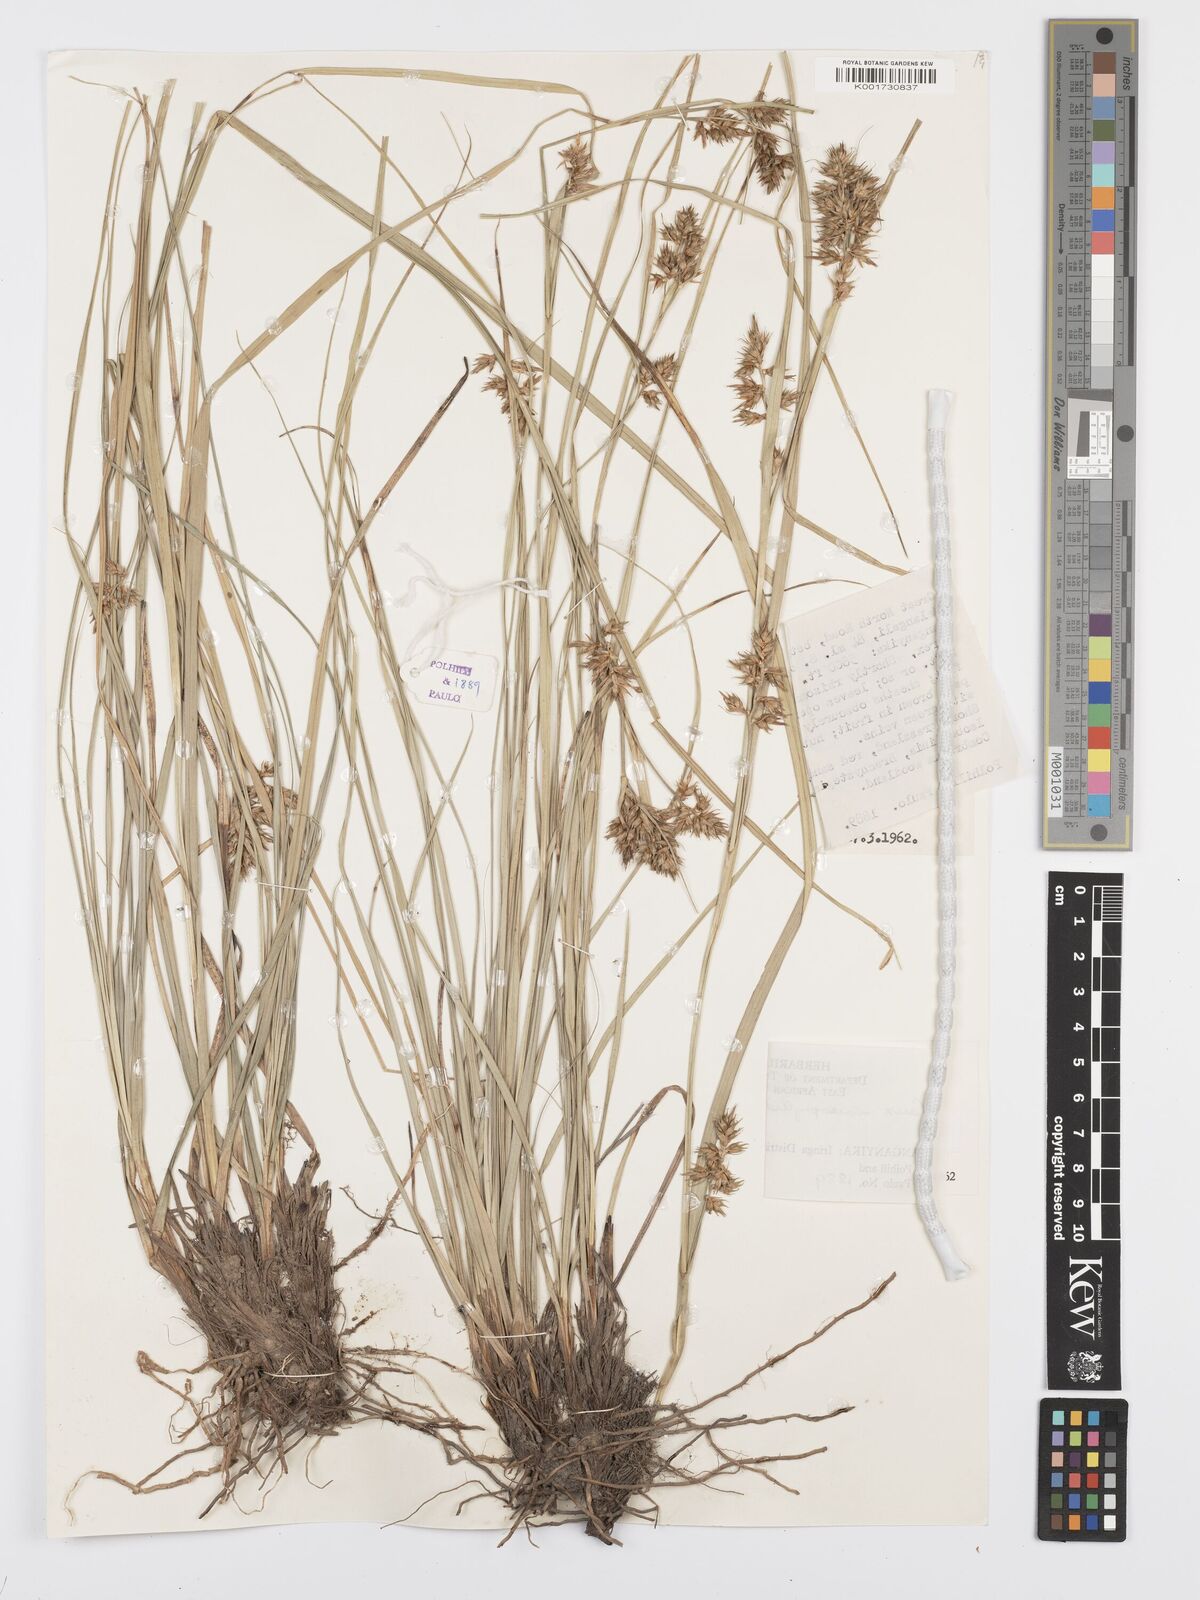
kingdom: Plantae
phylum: Tracheophyta
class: Liliopsida
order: Poales
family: Cyperaceae
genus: Carex
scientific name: Carex macrophyllidion
